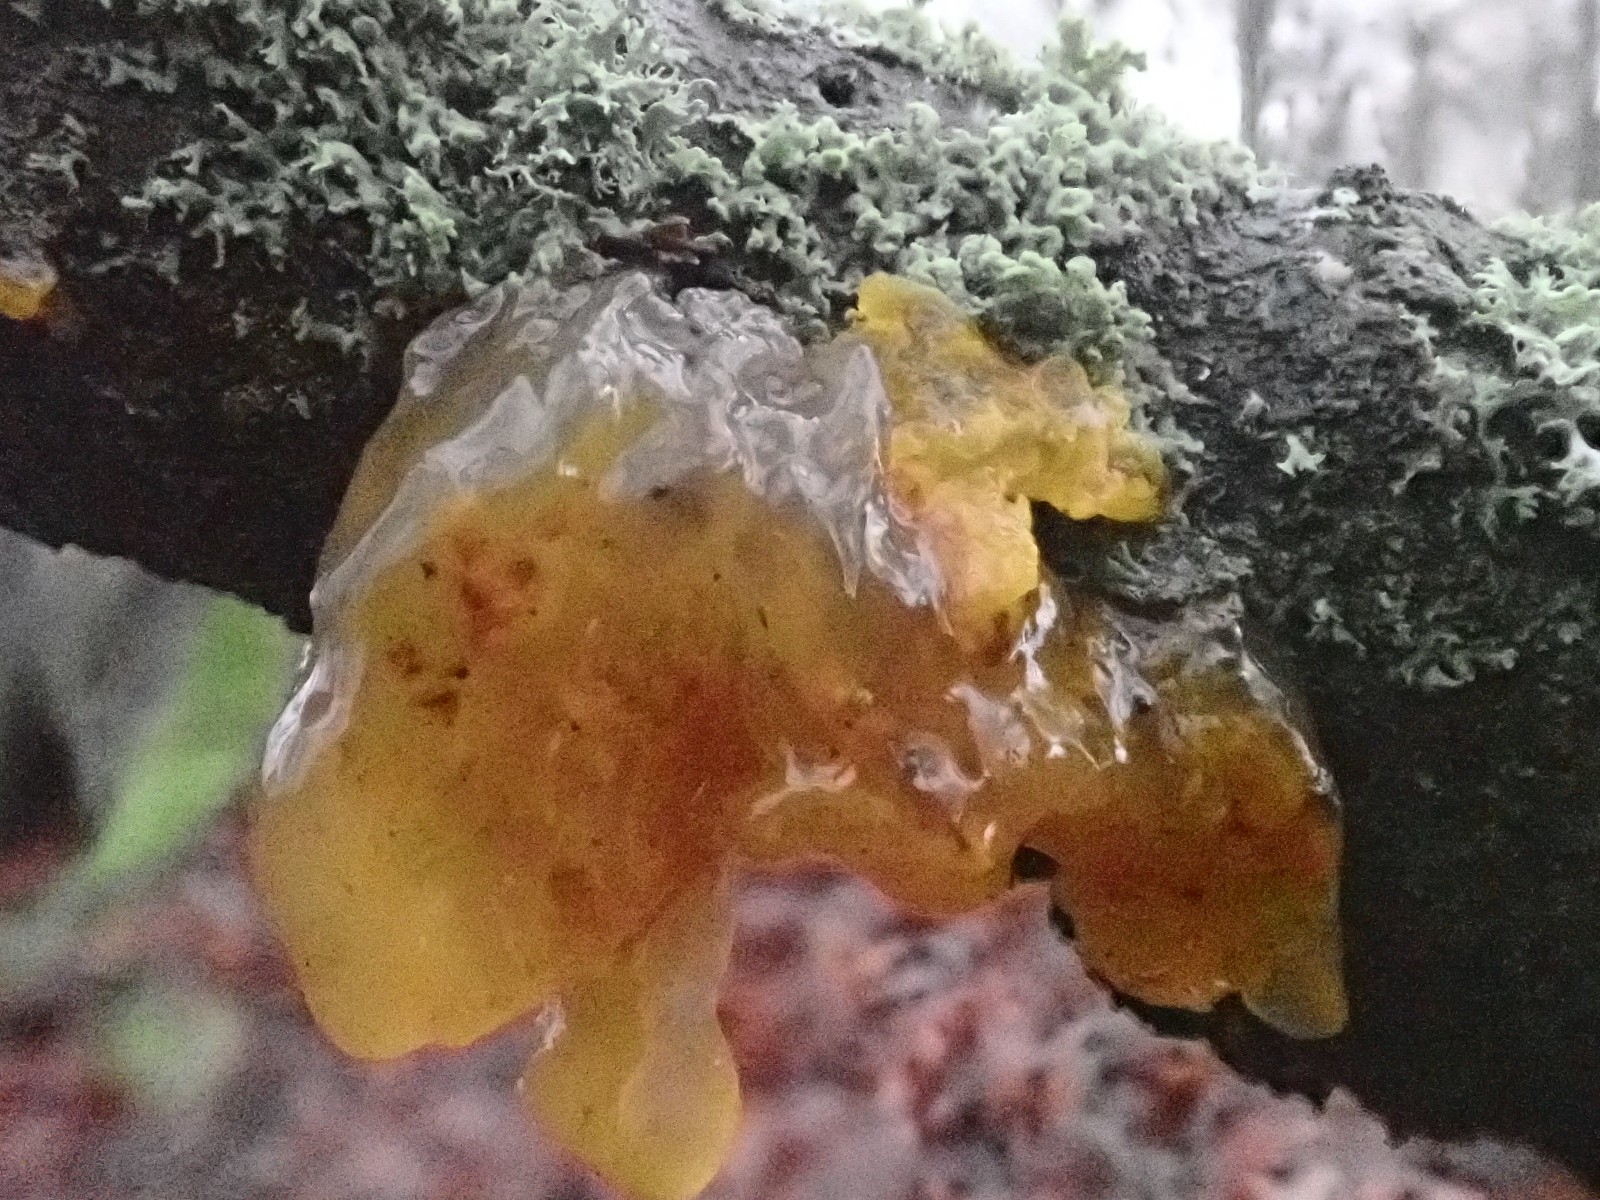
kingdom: Fungi
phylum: Basidiomycota
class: Tremellomycetes
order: Tremellales
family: Tremellaceae
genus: Tremella
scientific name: Tremella mesenterica
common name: gul bævresvamp
